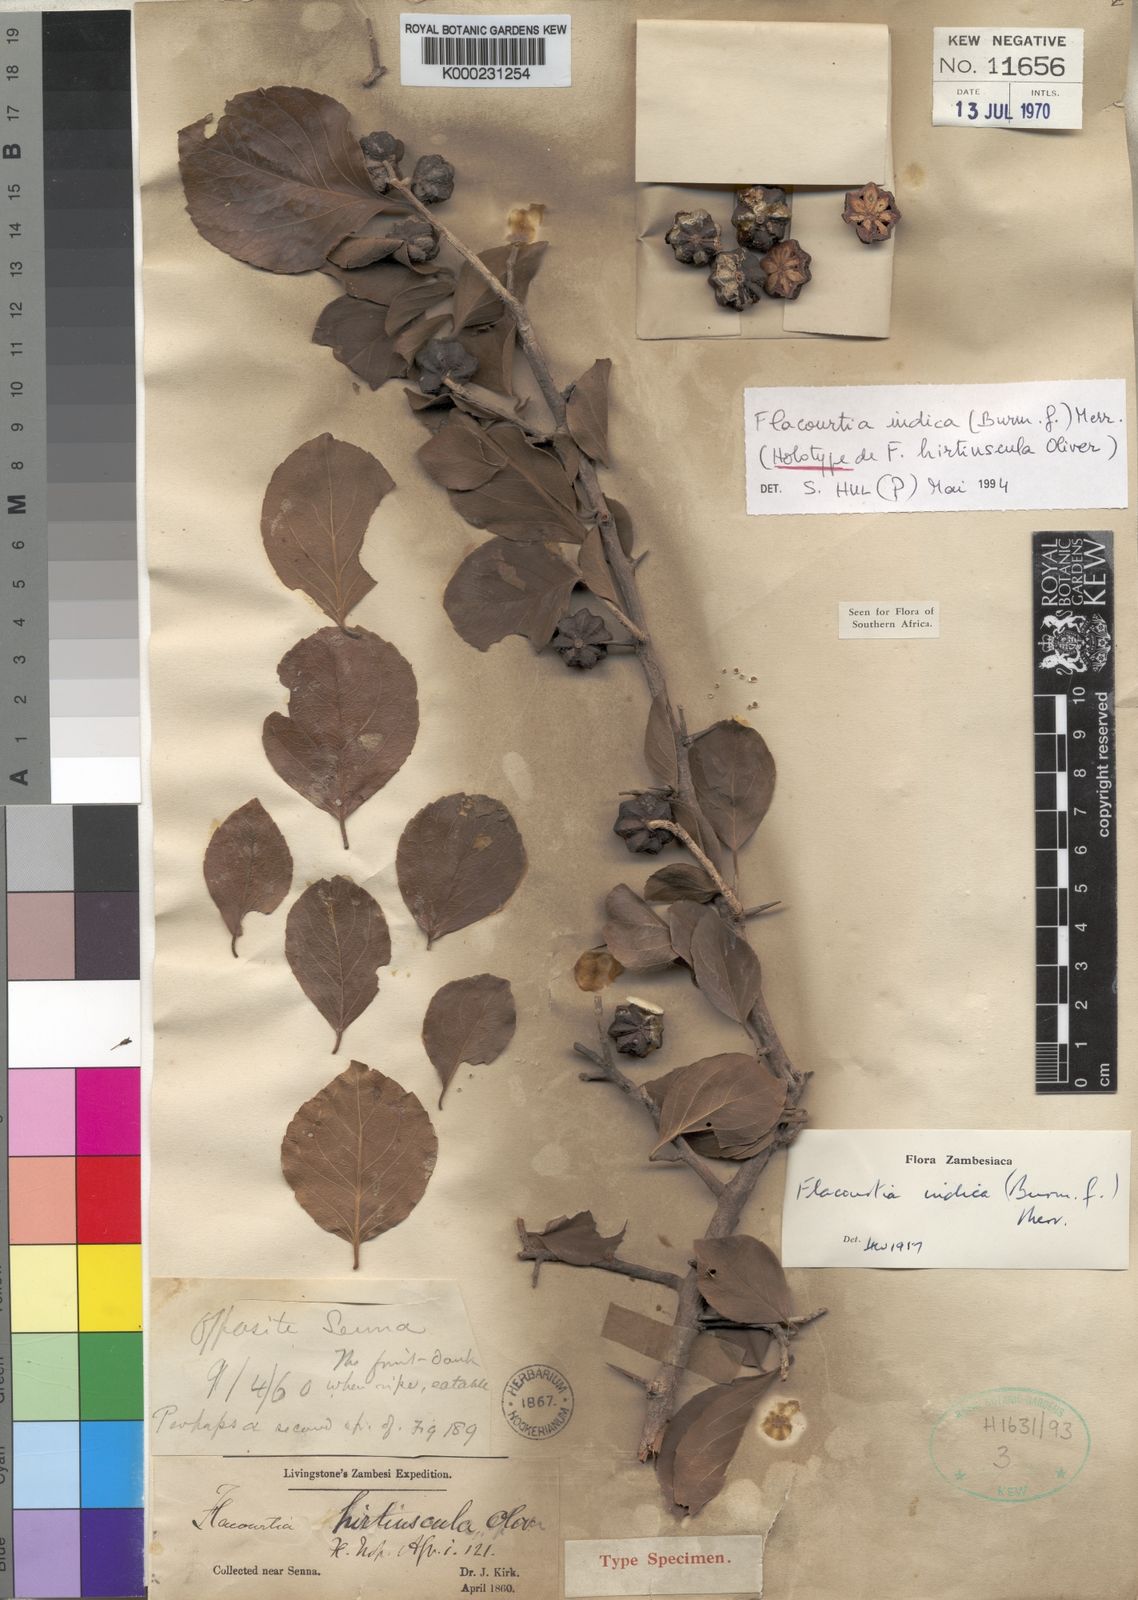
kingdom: Plantae
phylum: Tracheophyta
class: Magnoliopsida
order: Malpighiales
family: Salicaceae
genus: Flacourtia
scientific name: Flacourtia indica
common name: Governor's plum
